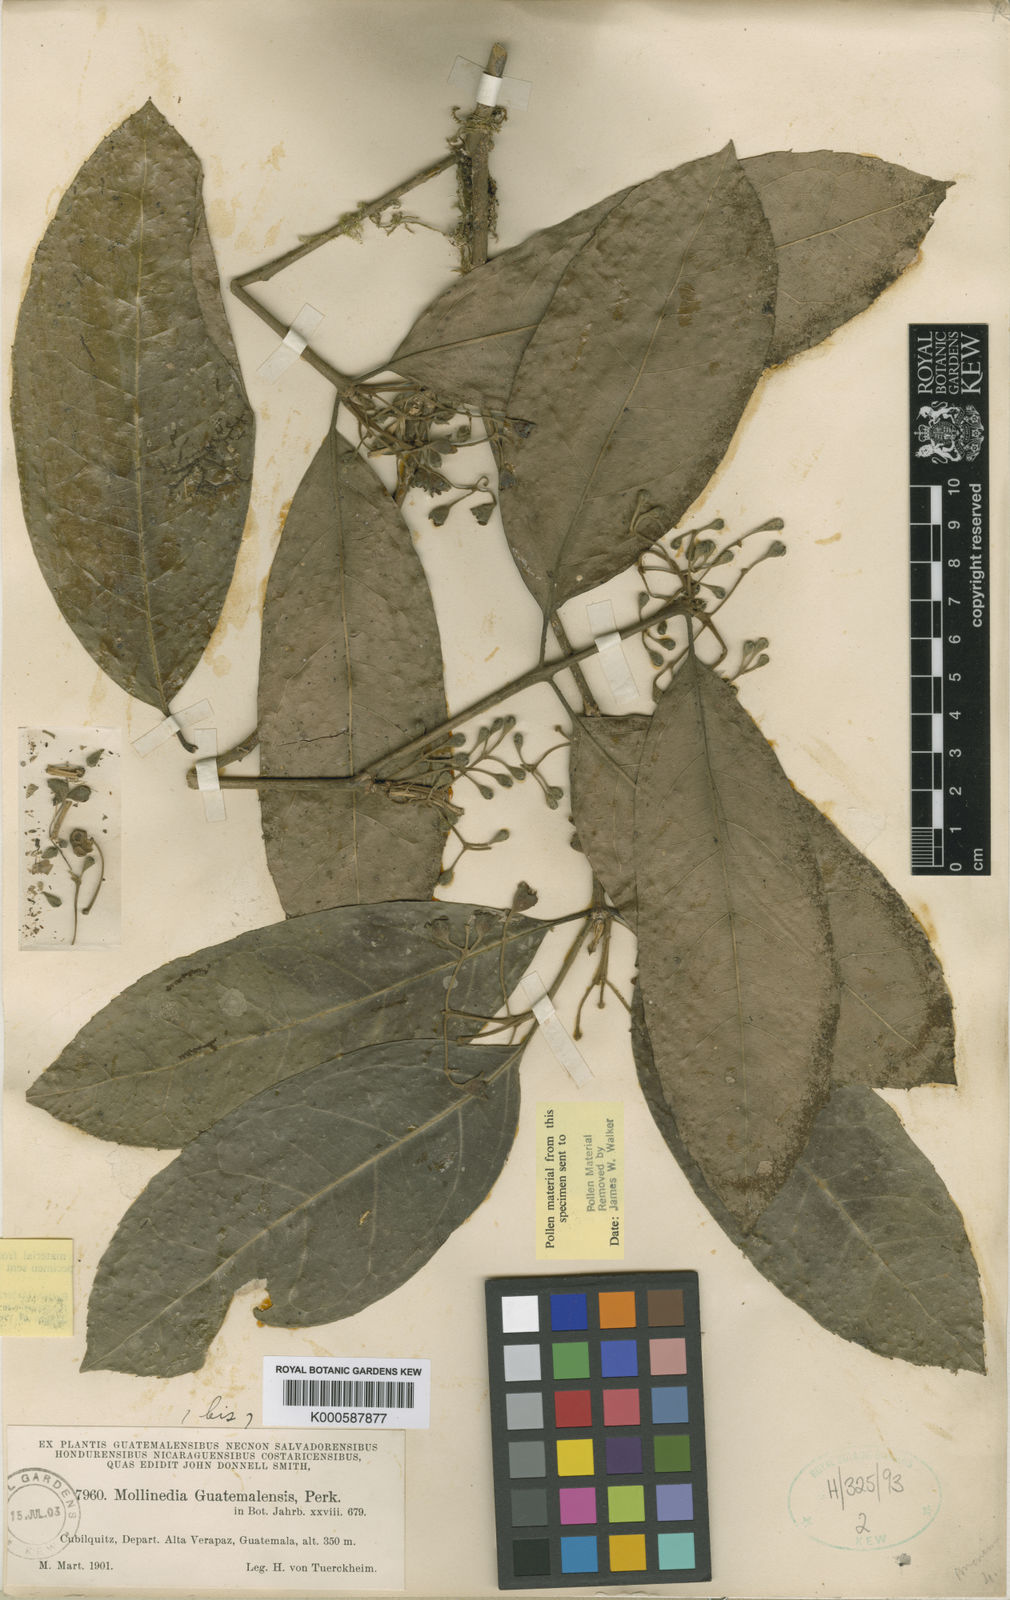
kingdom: Plantae
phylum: Tracheophyta
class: Magnoliopsida
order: Laurales
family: Monimiaceae
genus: Mollinedia
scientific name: Mollinedia viridiflora
